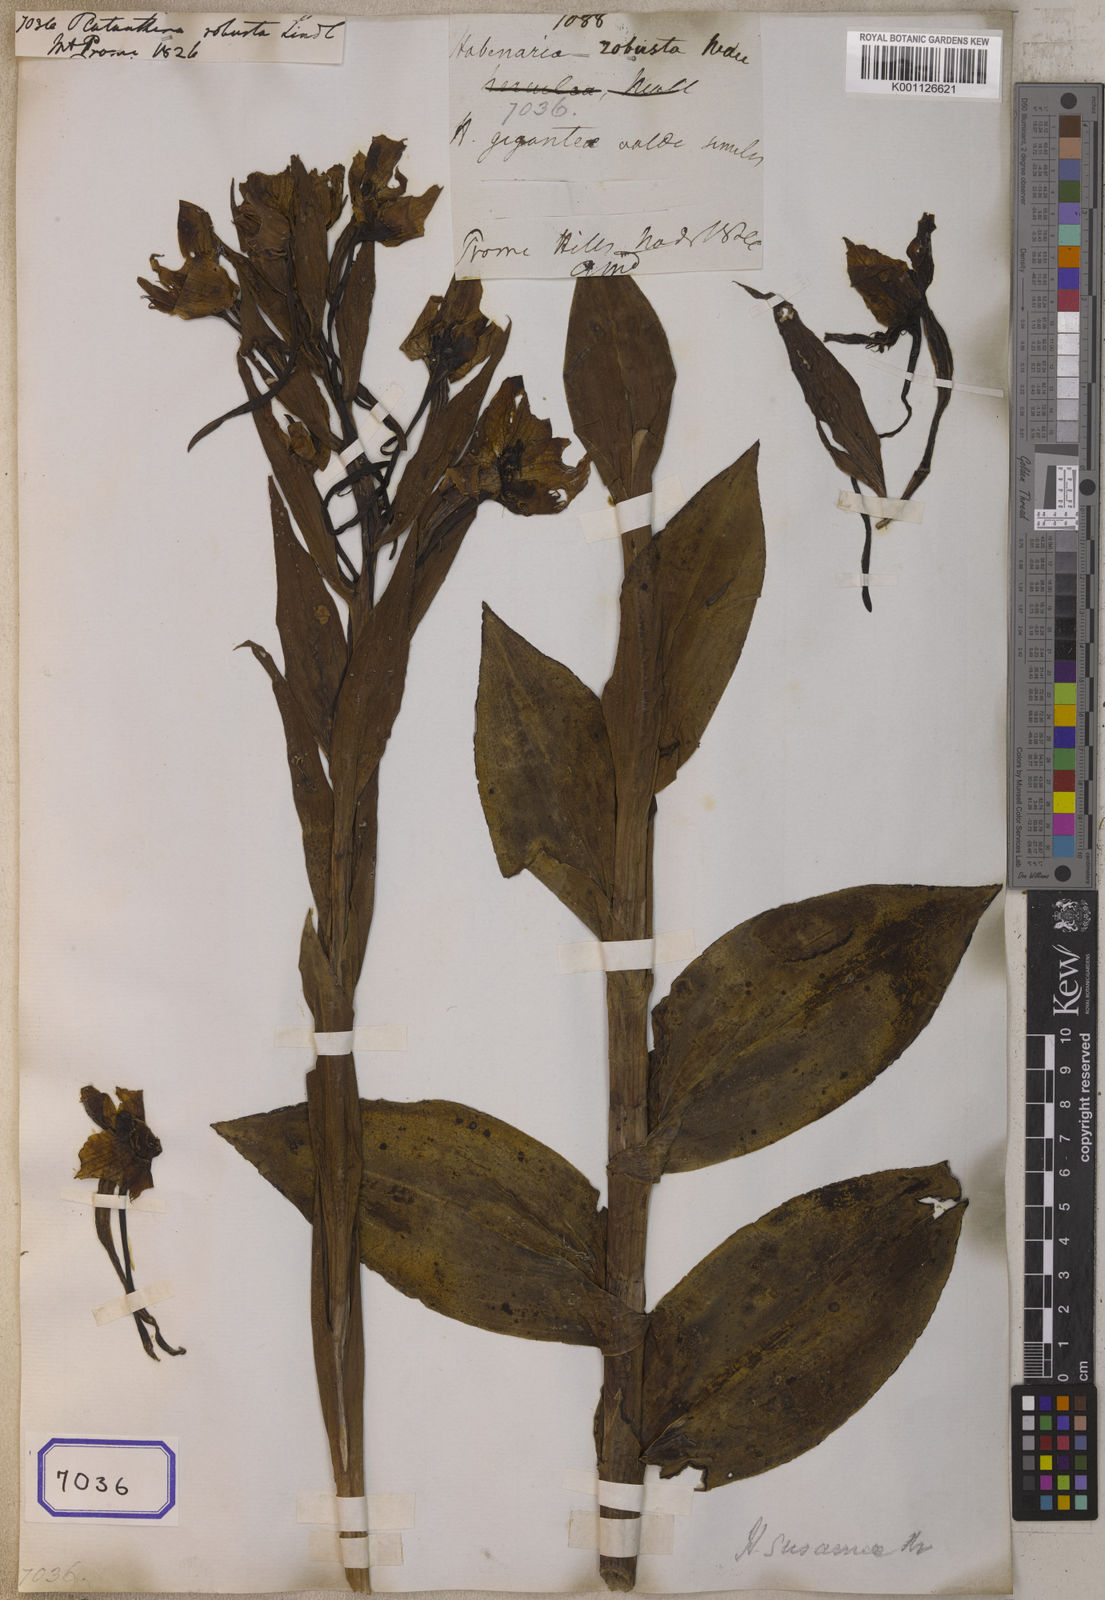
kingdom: Plantae
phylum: Tracheophyta
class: Liliopsida
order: Asparagales
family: Orchidaceae
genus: Pecteilis
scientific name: Pecteilis susannae
